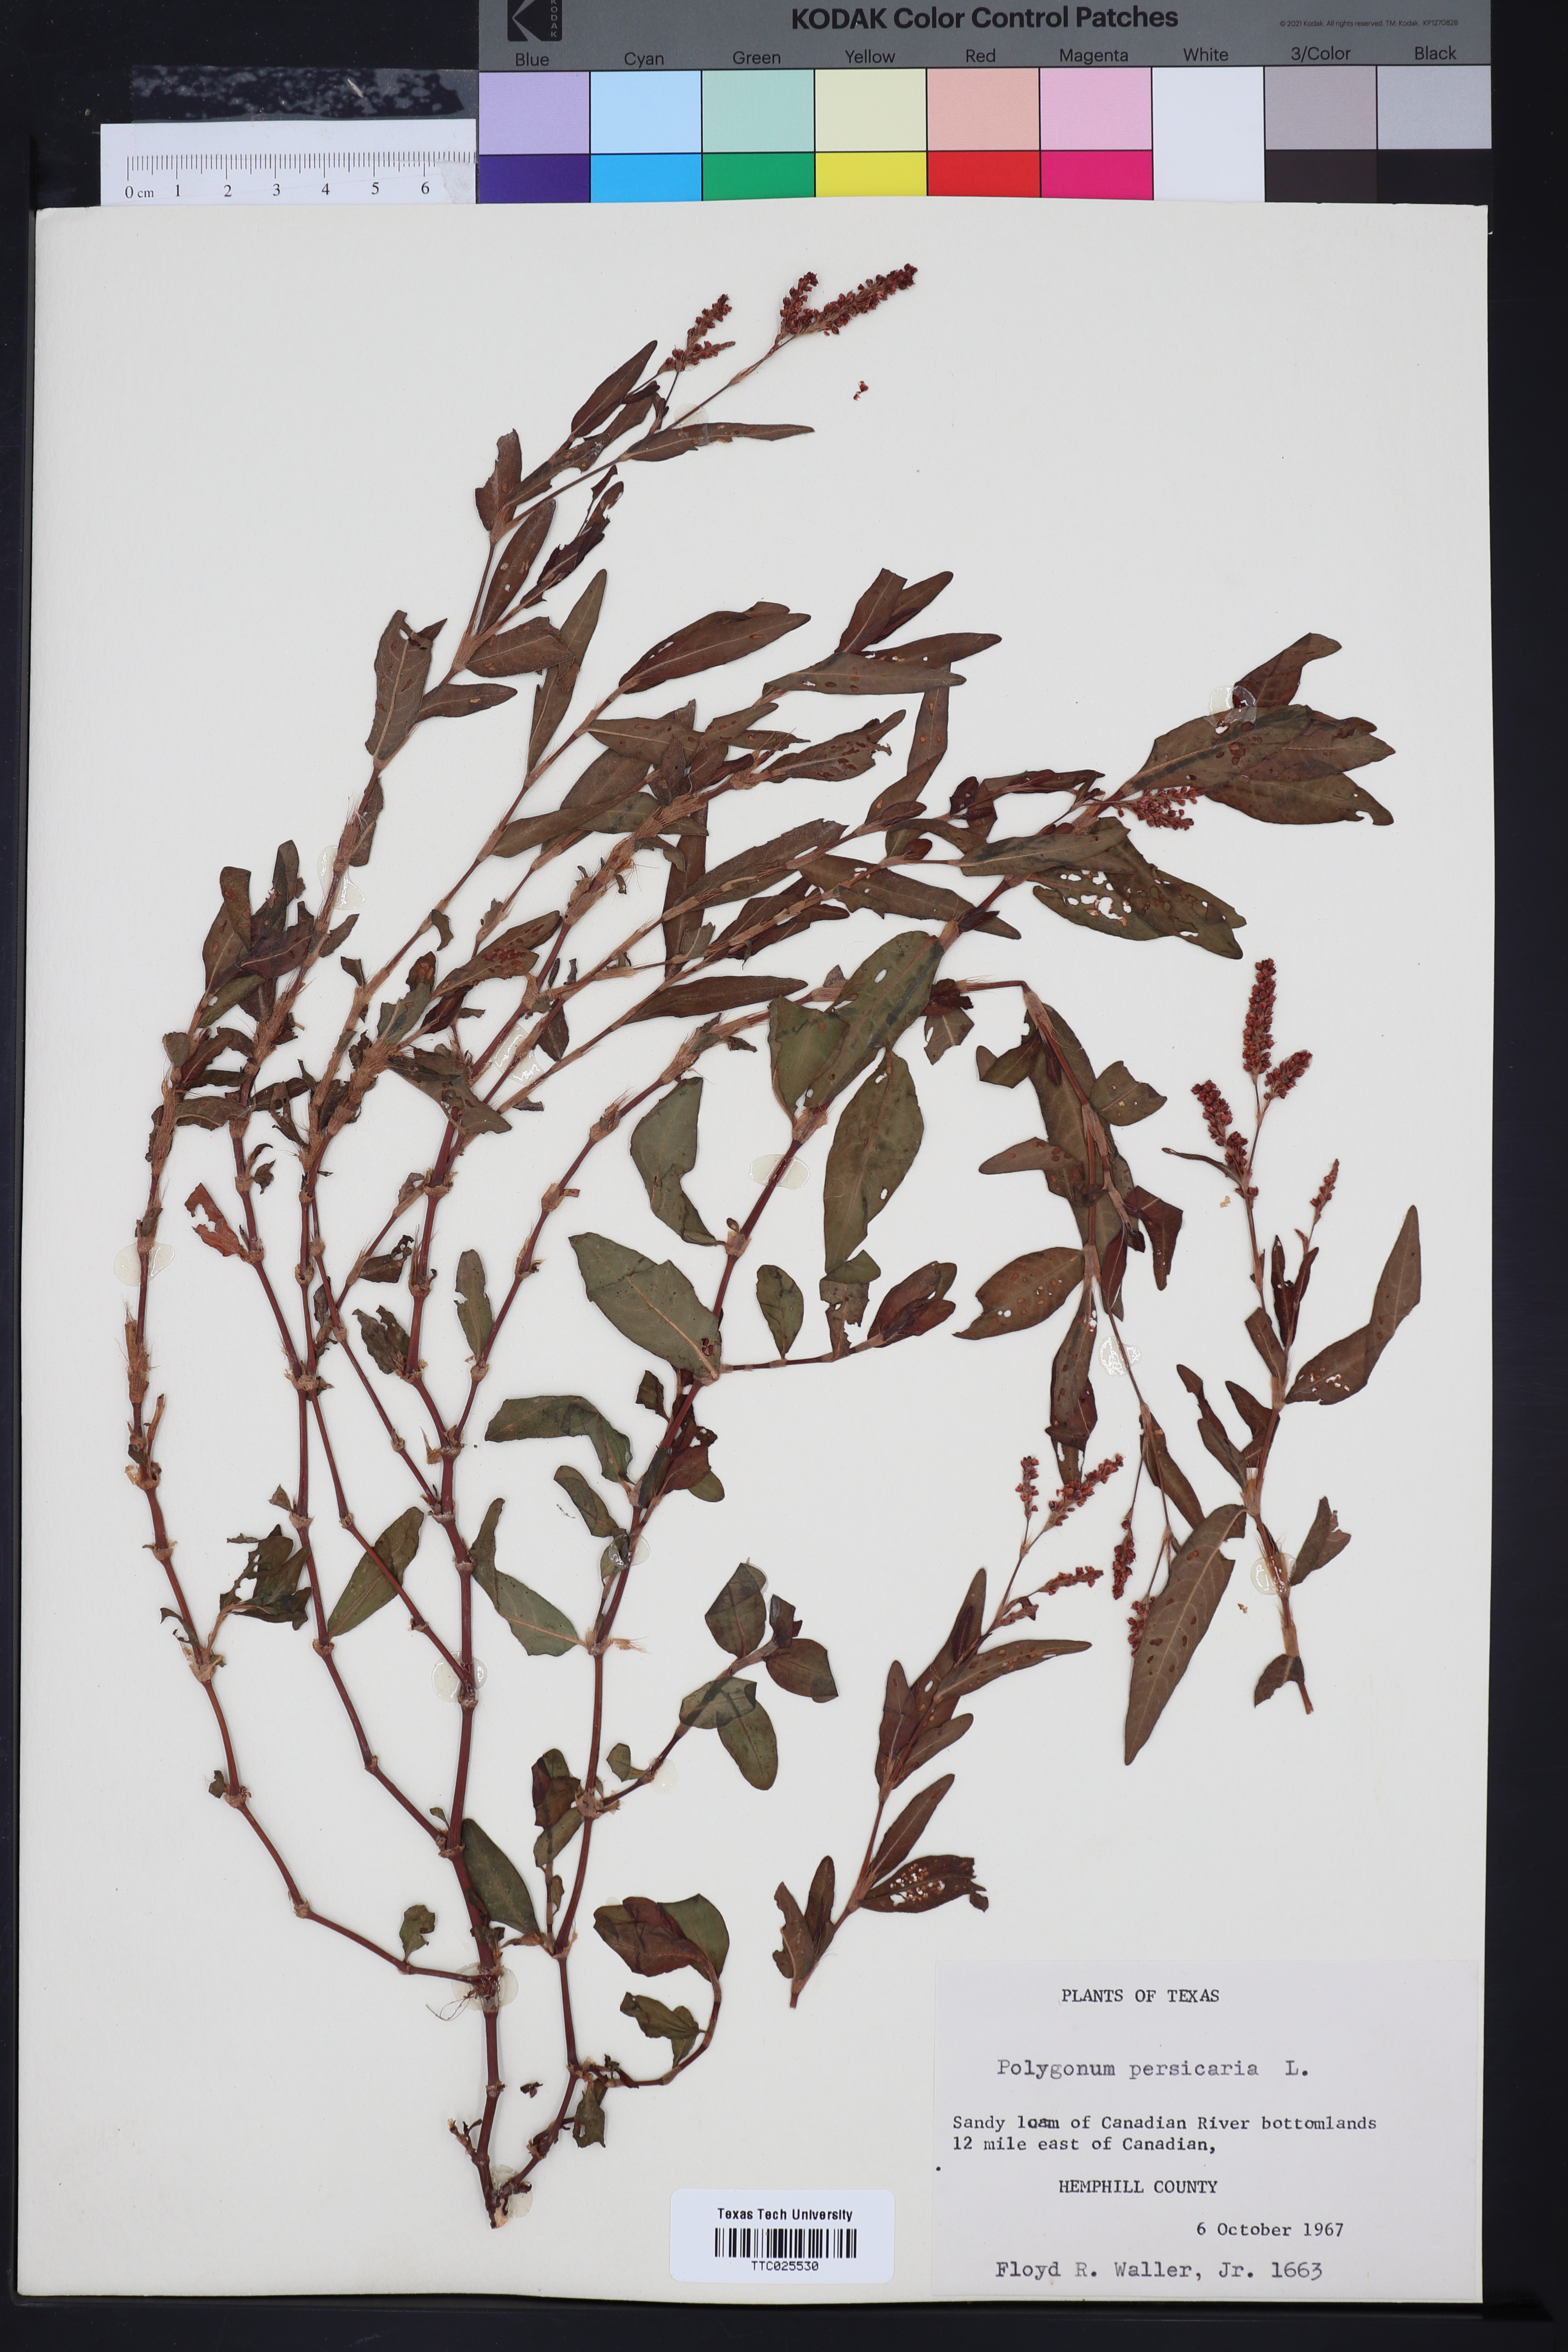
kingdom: Plantae
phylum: Tracheophyta
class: Magnoliopsida
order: Caryophyllales
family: Polygonaceae
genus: Persicaria
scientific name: Persicaria maculosa
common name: Redshank
